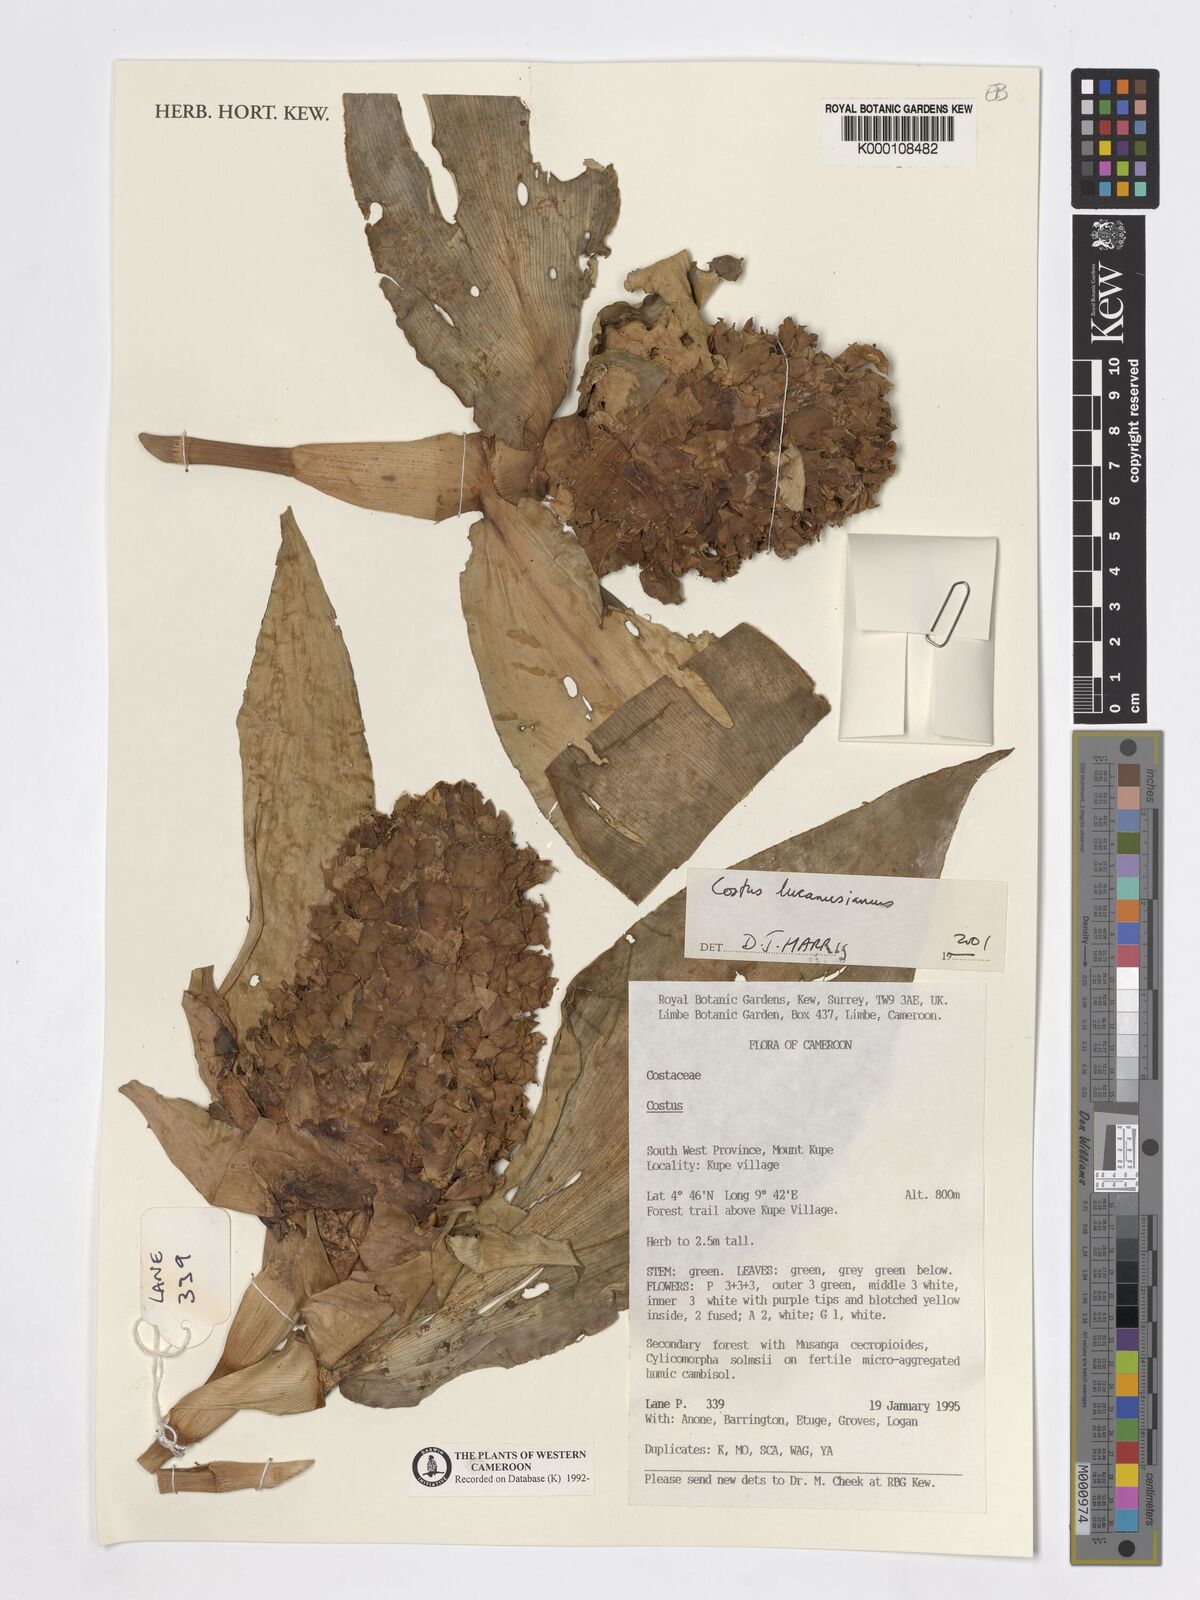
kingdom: Plantae
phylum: Tracheophyta
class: Liliopsida
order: Zingiberales
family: Costaceae
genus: Costus
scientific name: Costus lucanusianus
